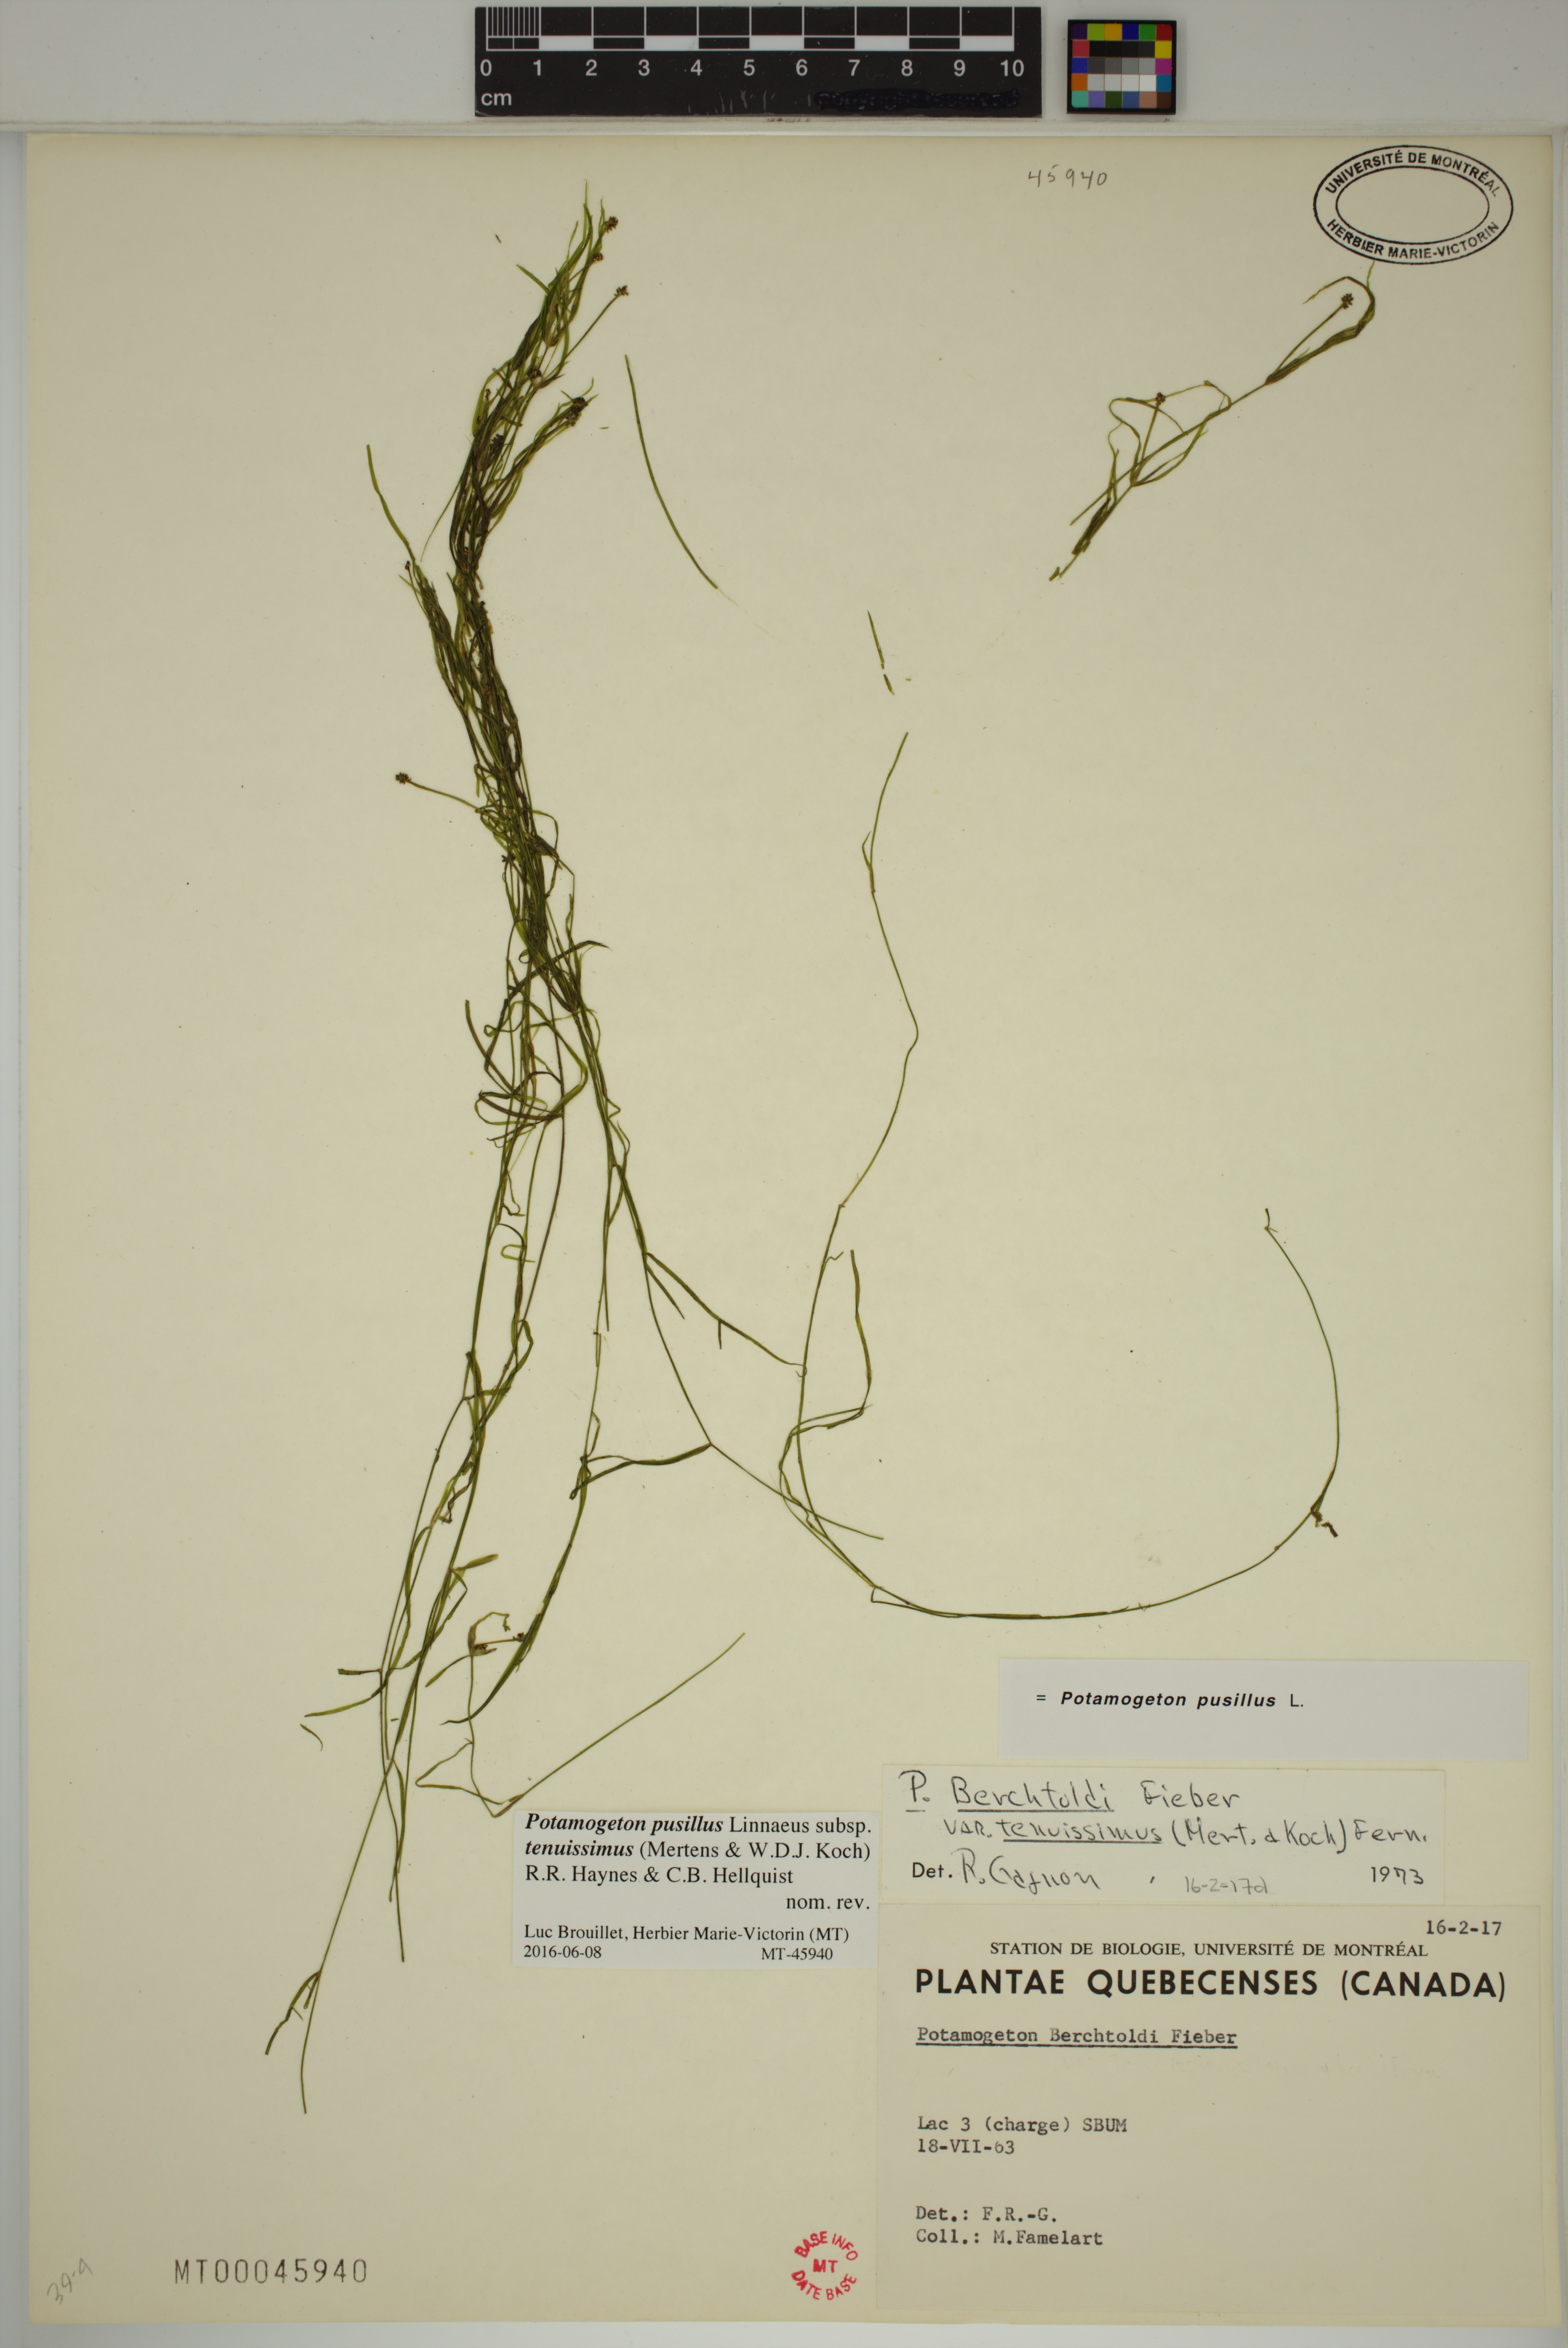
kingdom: Plantae
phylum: Tracheophyta
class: Liliopsida
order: Alismatales
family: Potamogetonaceae
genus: Potamogeton
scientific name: Potamogeton berchtoldii
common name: Small pondweed
